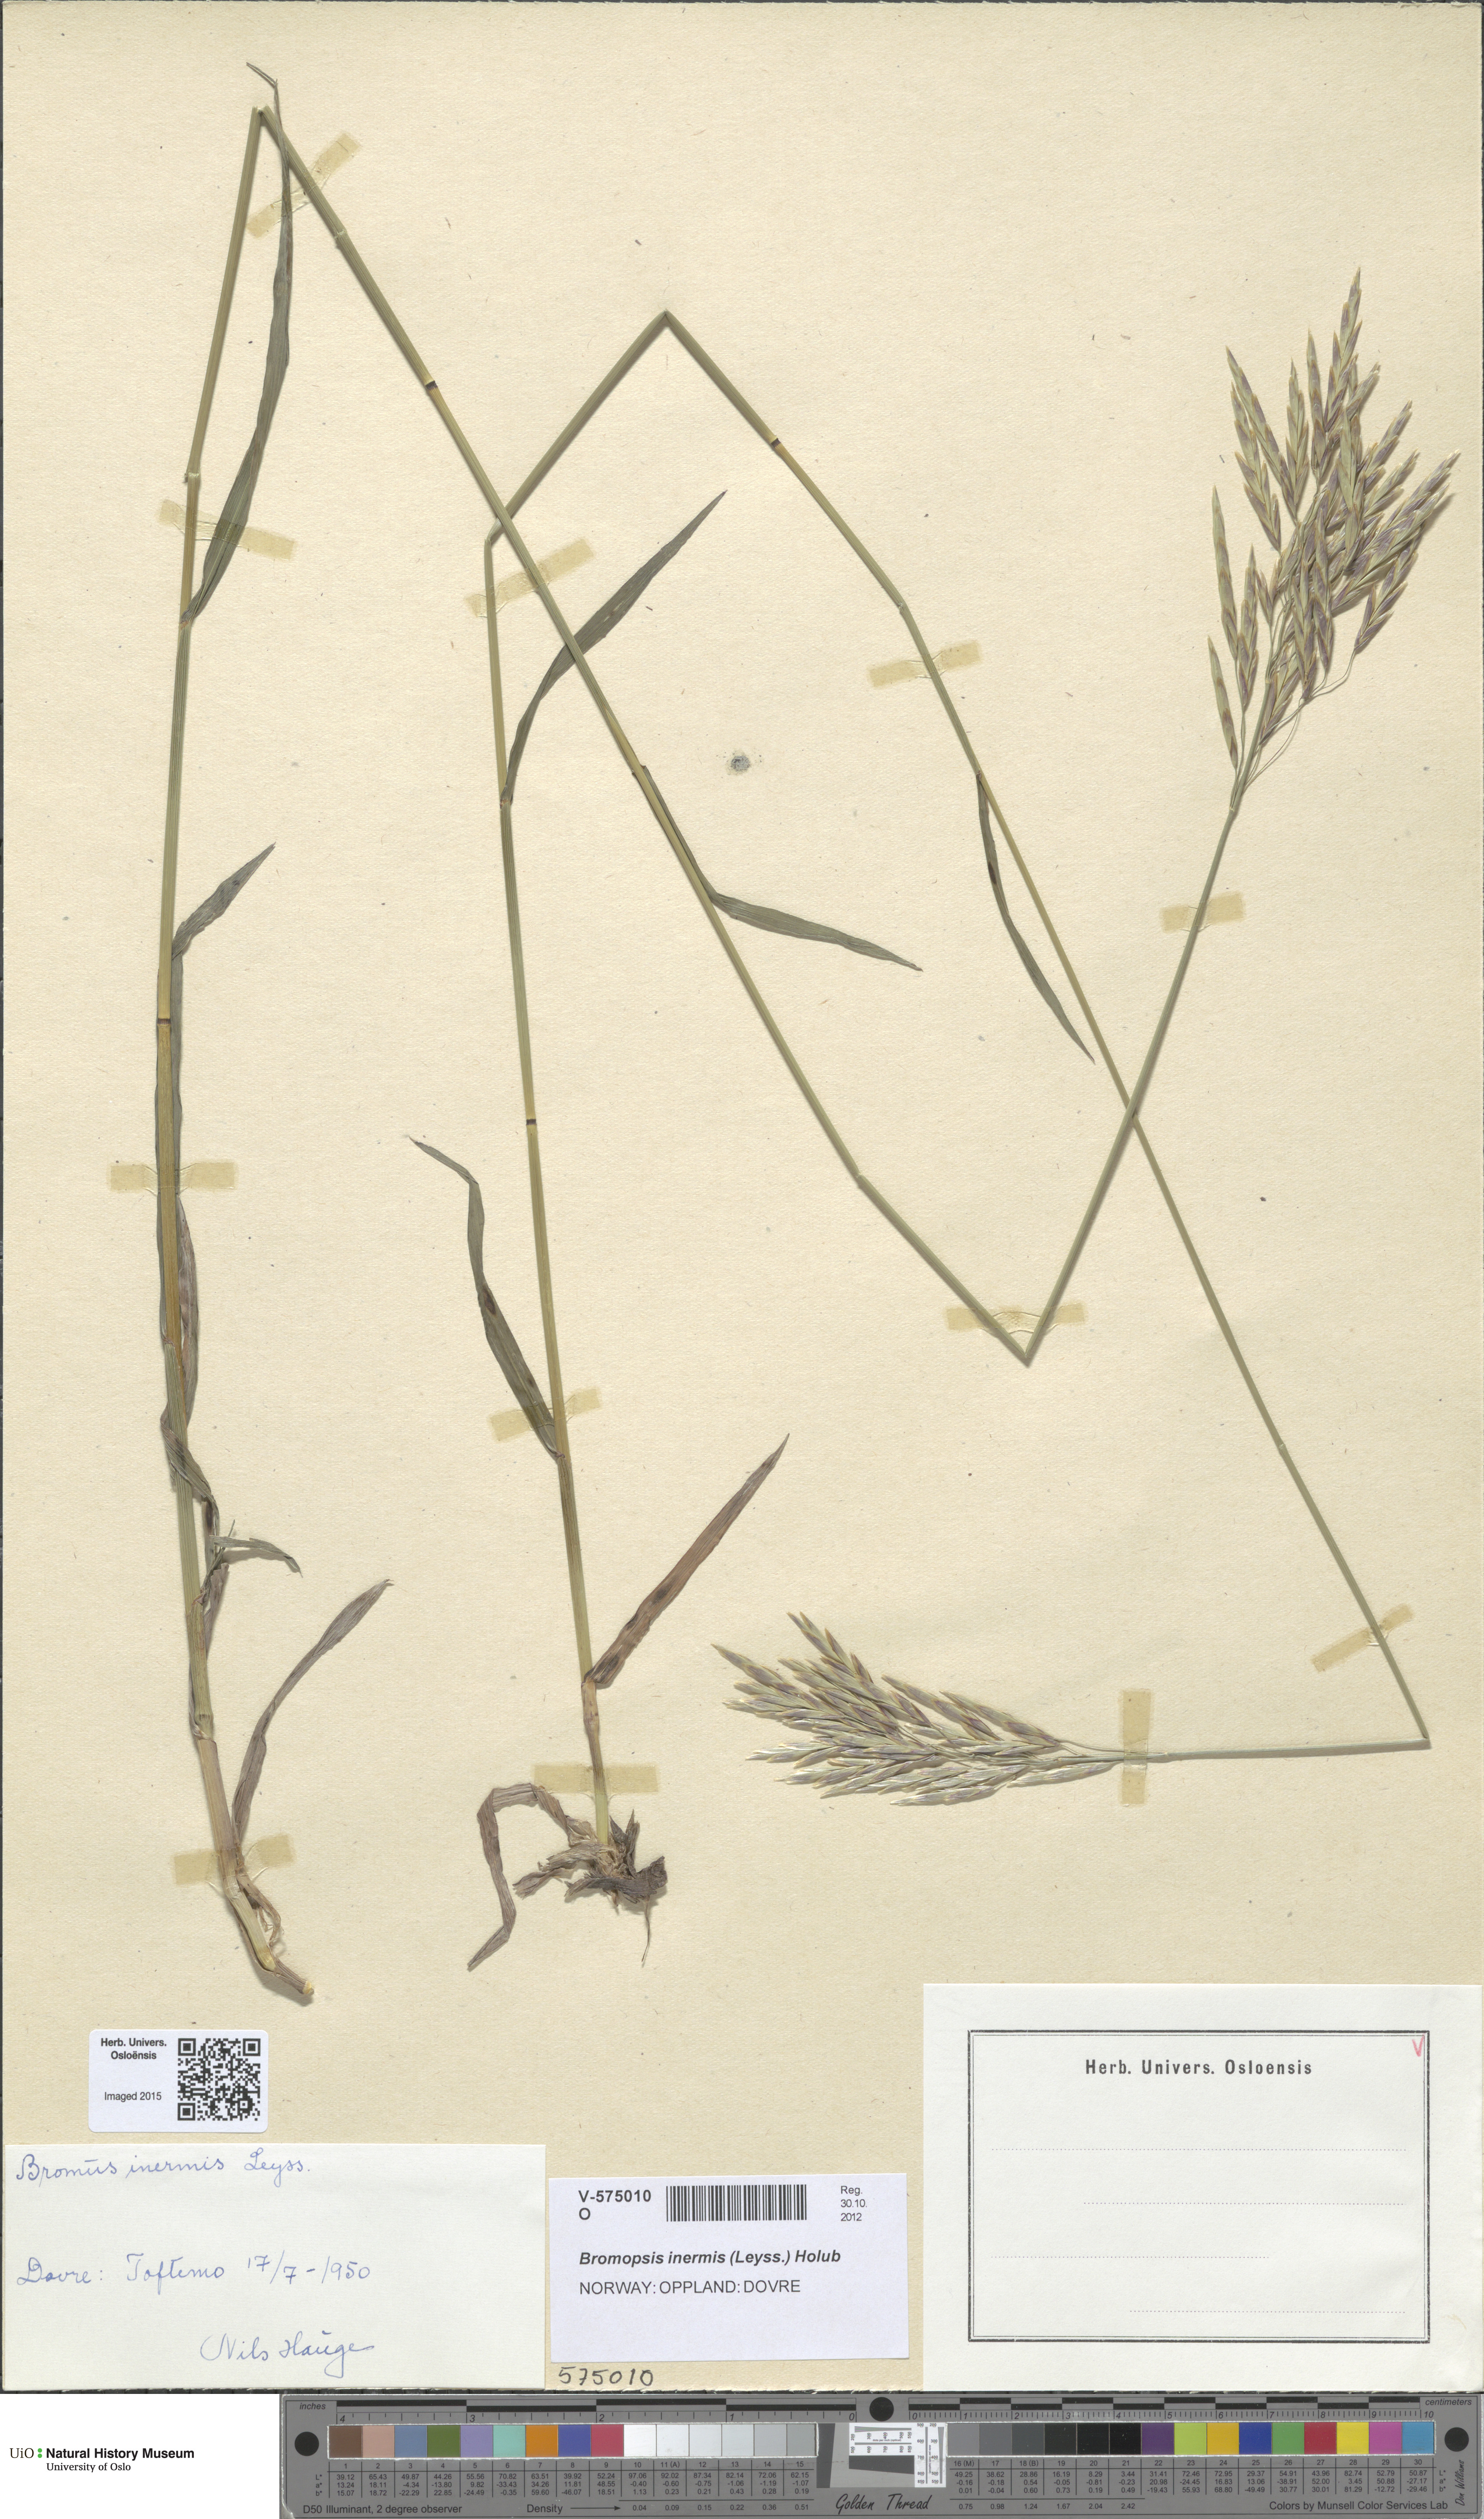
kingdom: Plantae
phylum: Tracheophyta
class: Liliopsida
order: Poales
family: Poaceae
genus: Bromus
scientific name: Bromus inermis
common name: Smooth brome
